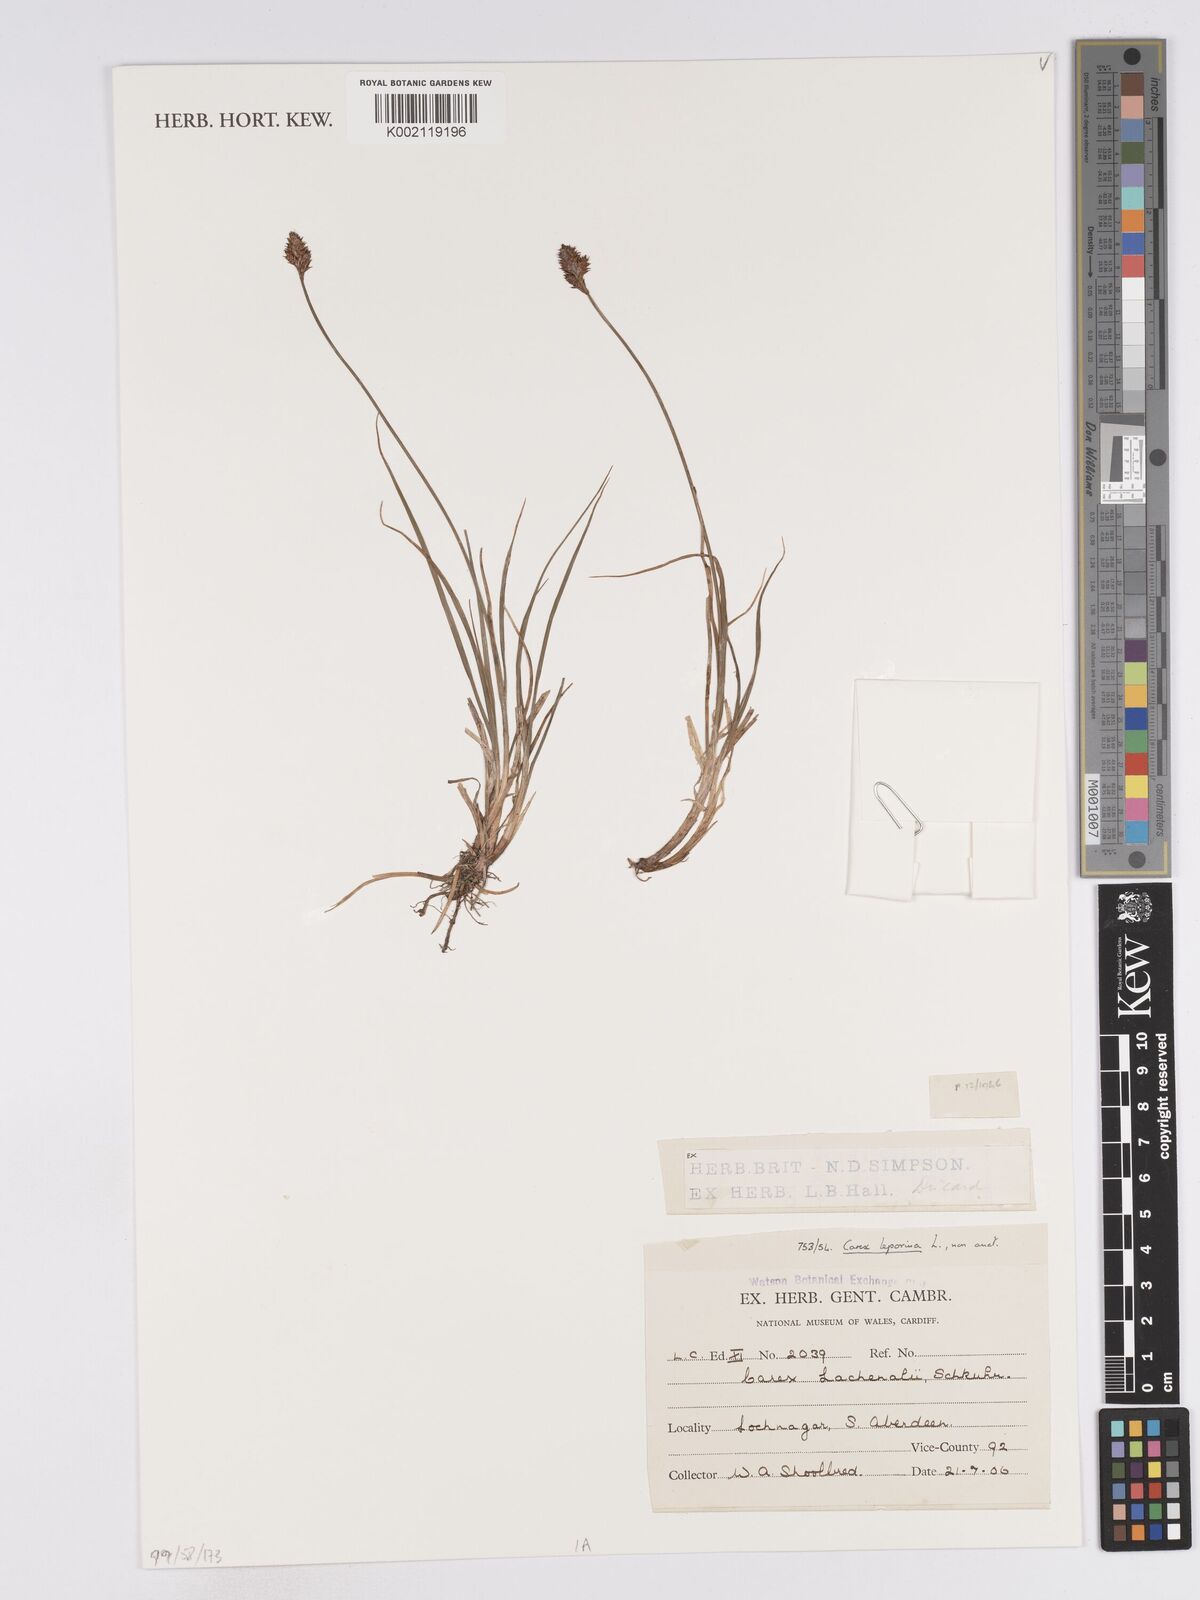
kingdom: Plantae
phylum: Tracheophyta
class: Liliopsida
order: Poales
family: Cyperaceae
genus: Carex
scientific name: Carex lachenalii
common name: Hare's-foot sedge
